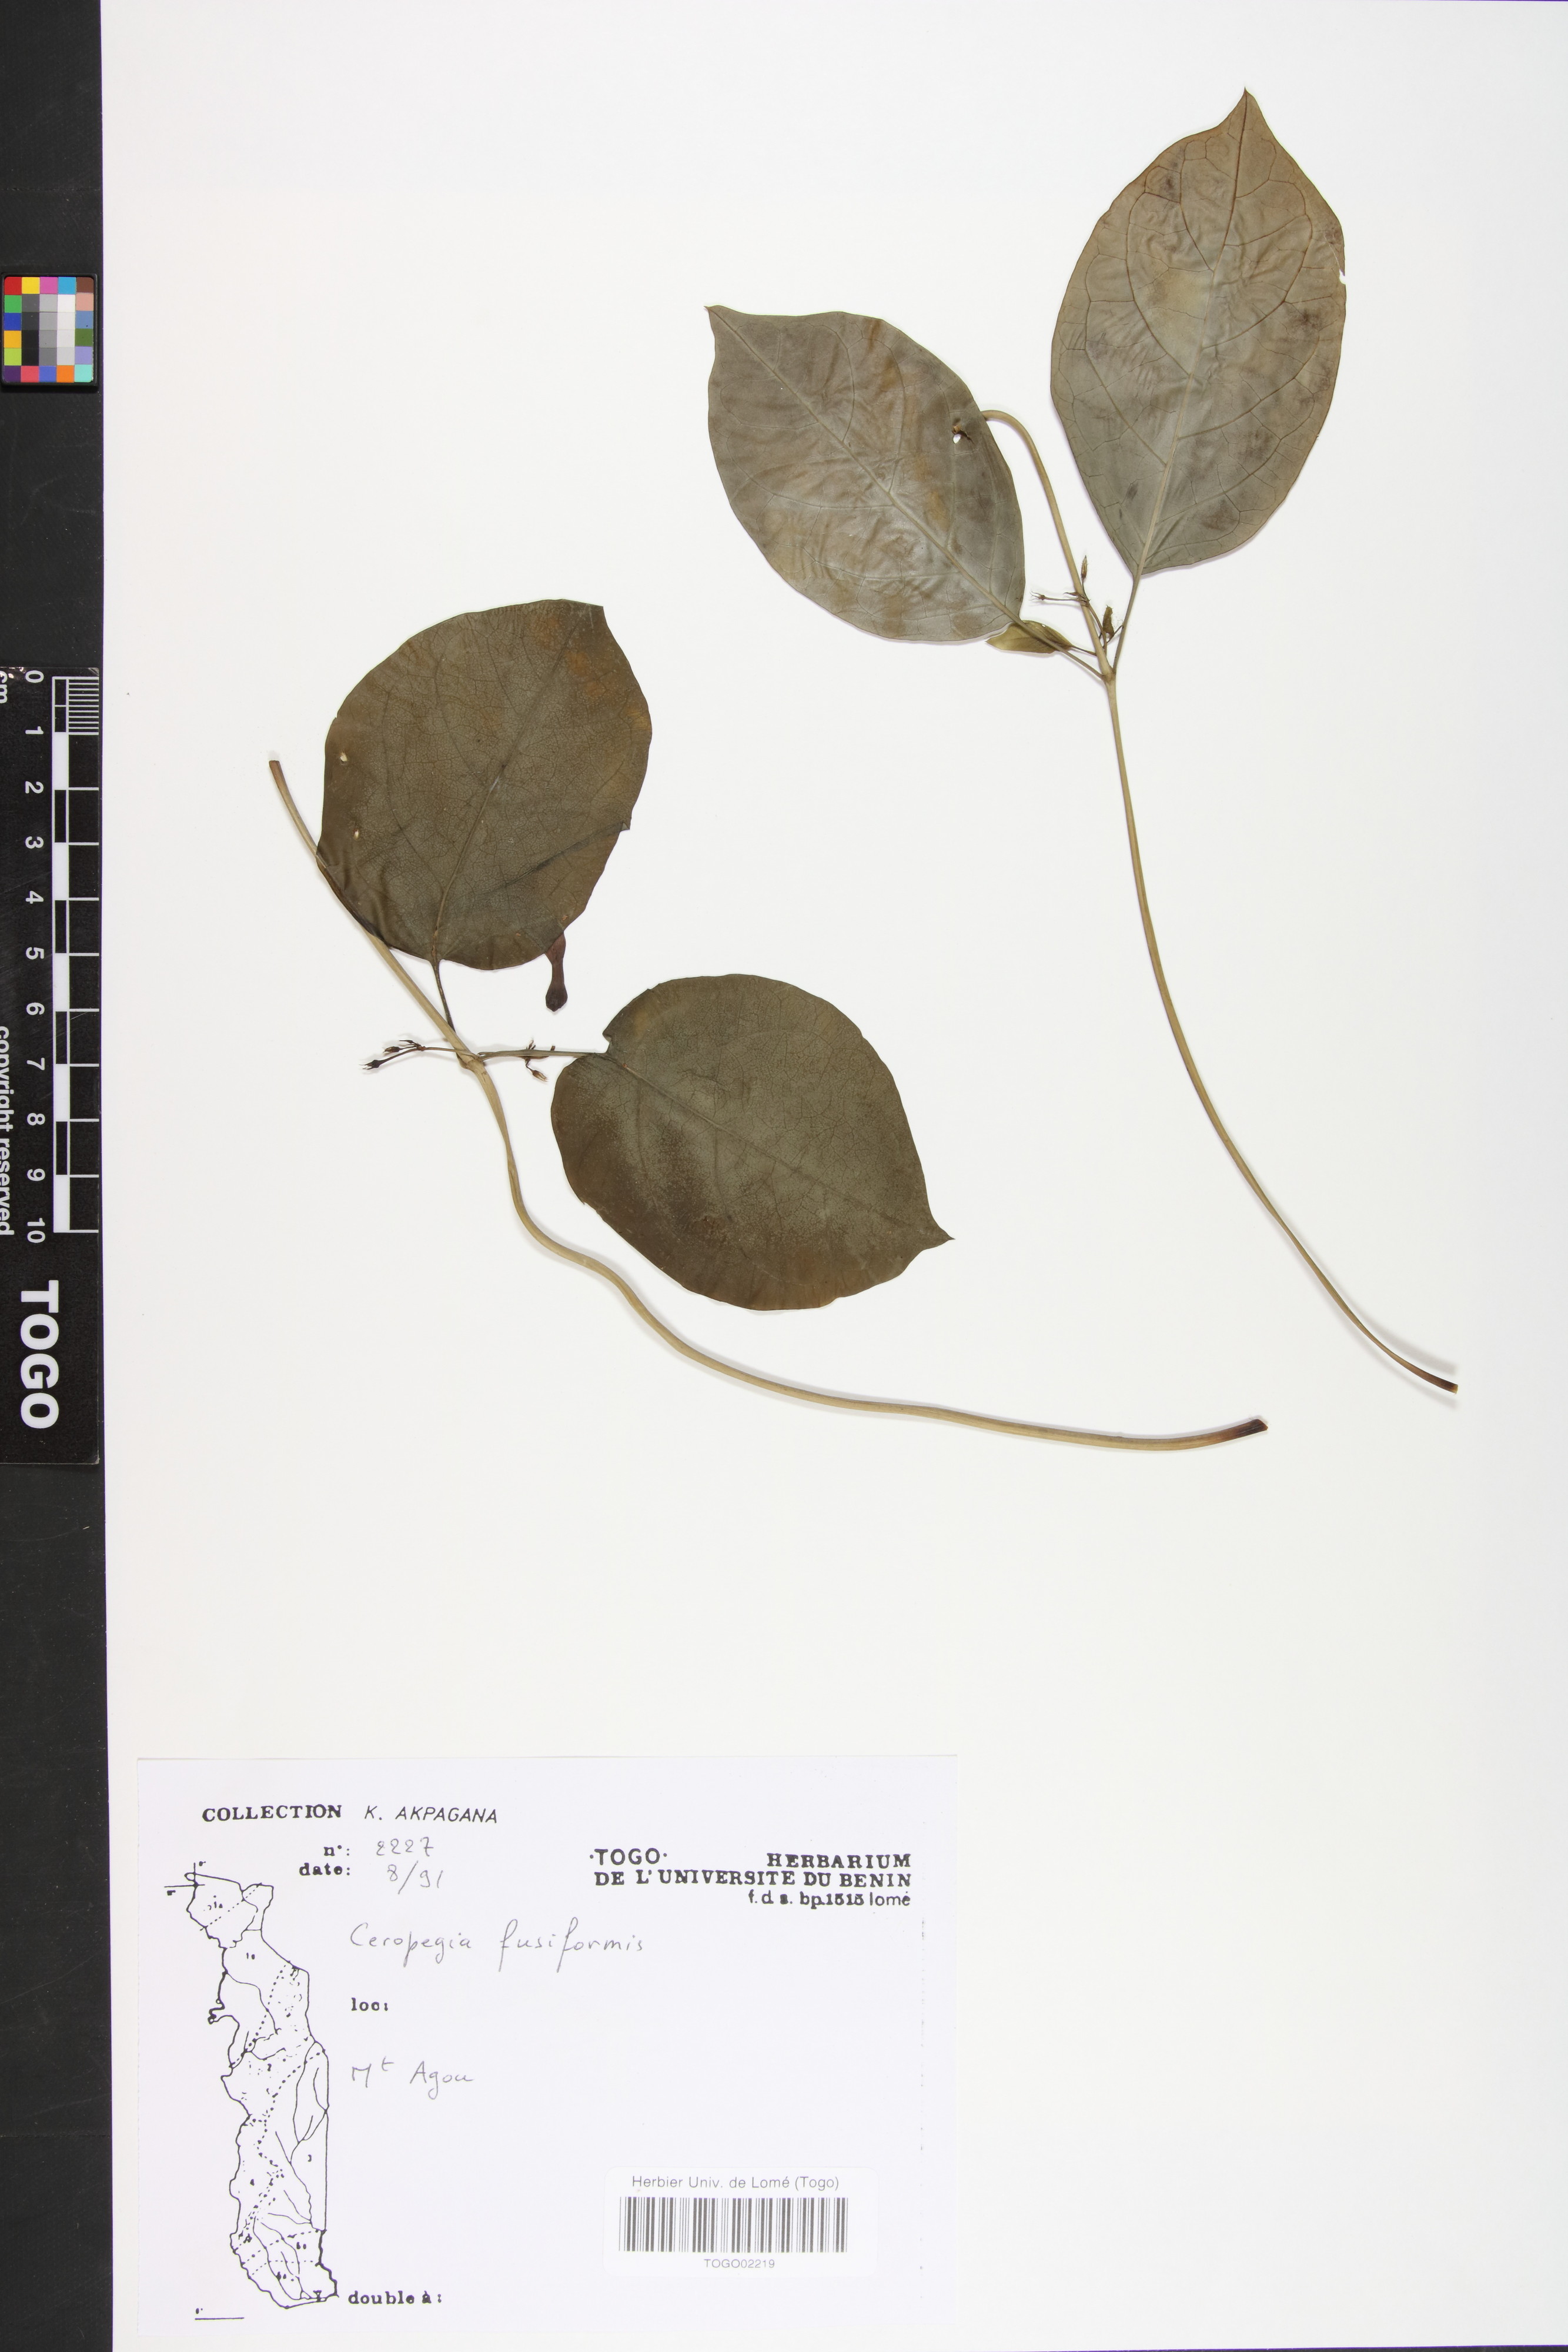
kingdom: Plantae
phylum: Tracheophyta
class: Magnoliopsida
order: Gentianales
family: Apocynaceae
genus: Ceropegia
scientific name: Ceropegia fusiformis
